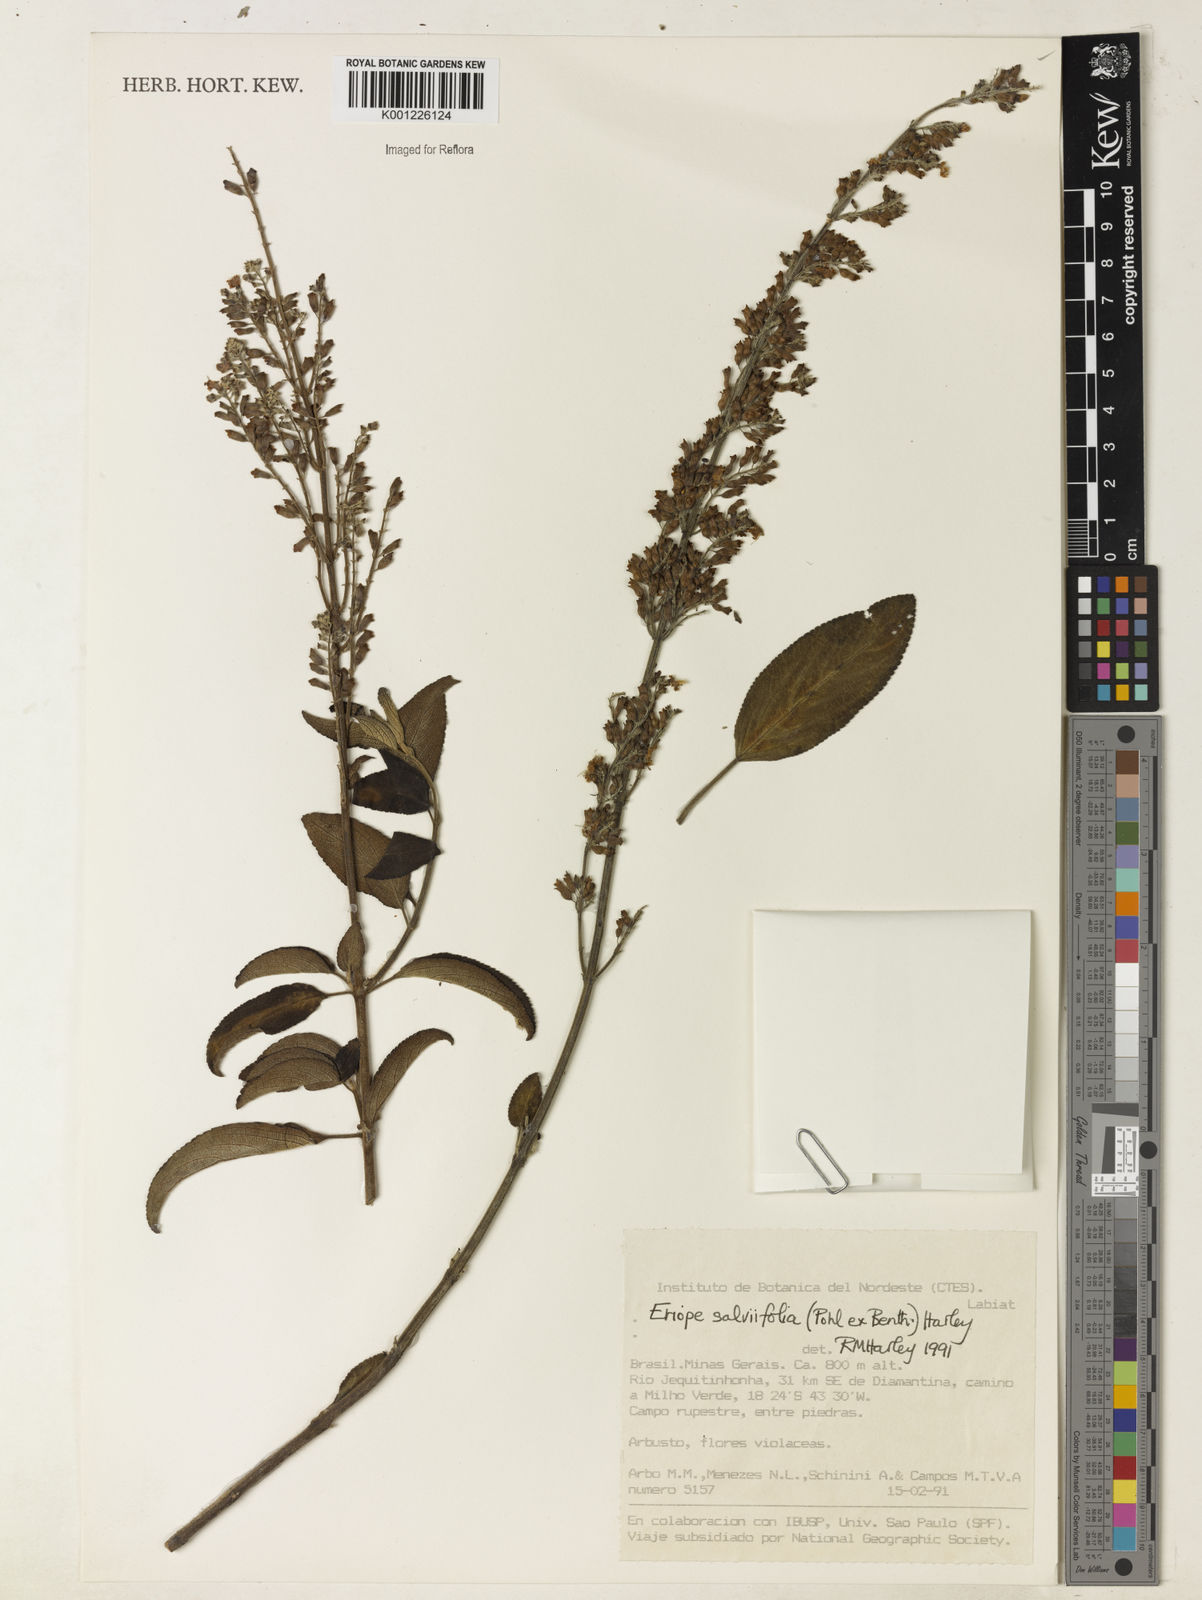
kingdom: Plantae
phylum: Tracheophyta
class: Magnoliopsida
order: Lamiales
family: Lamiaceae
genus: Eriope
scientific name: Eriope salviifolia
